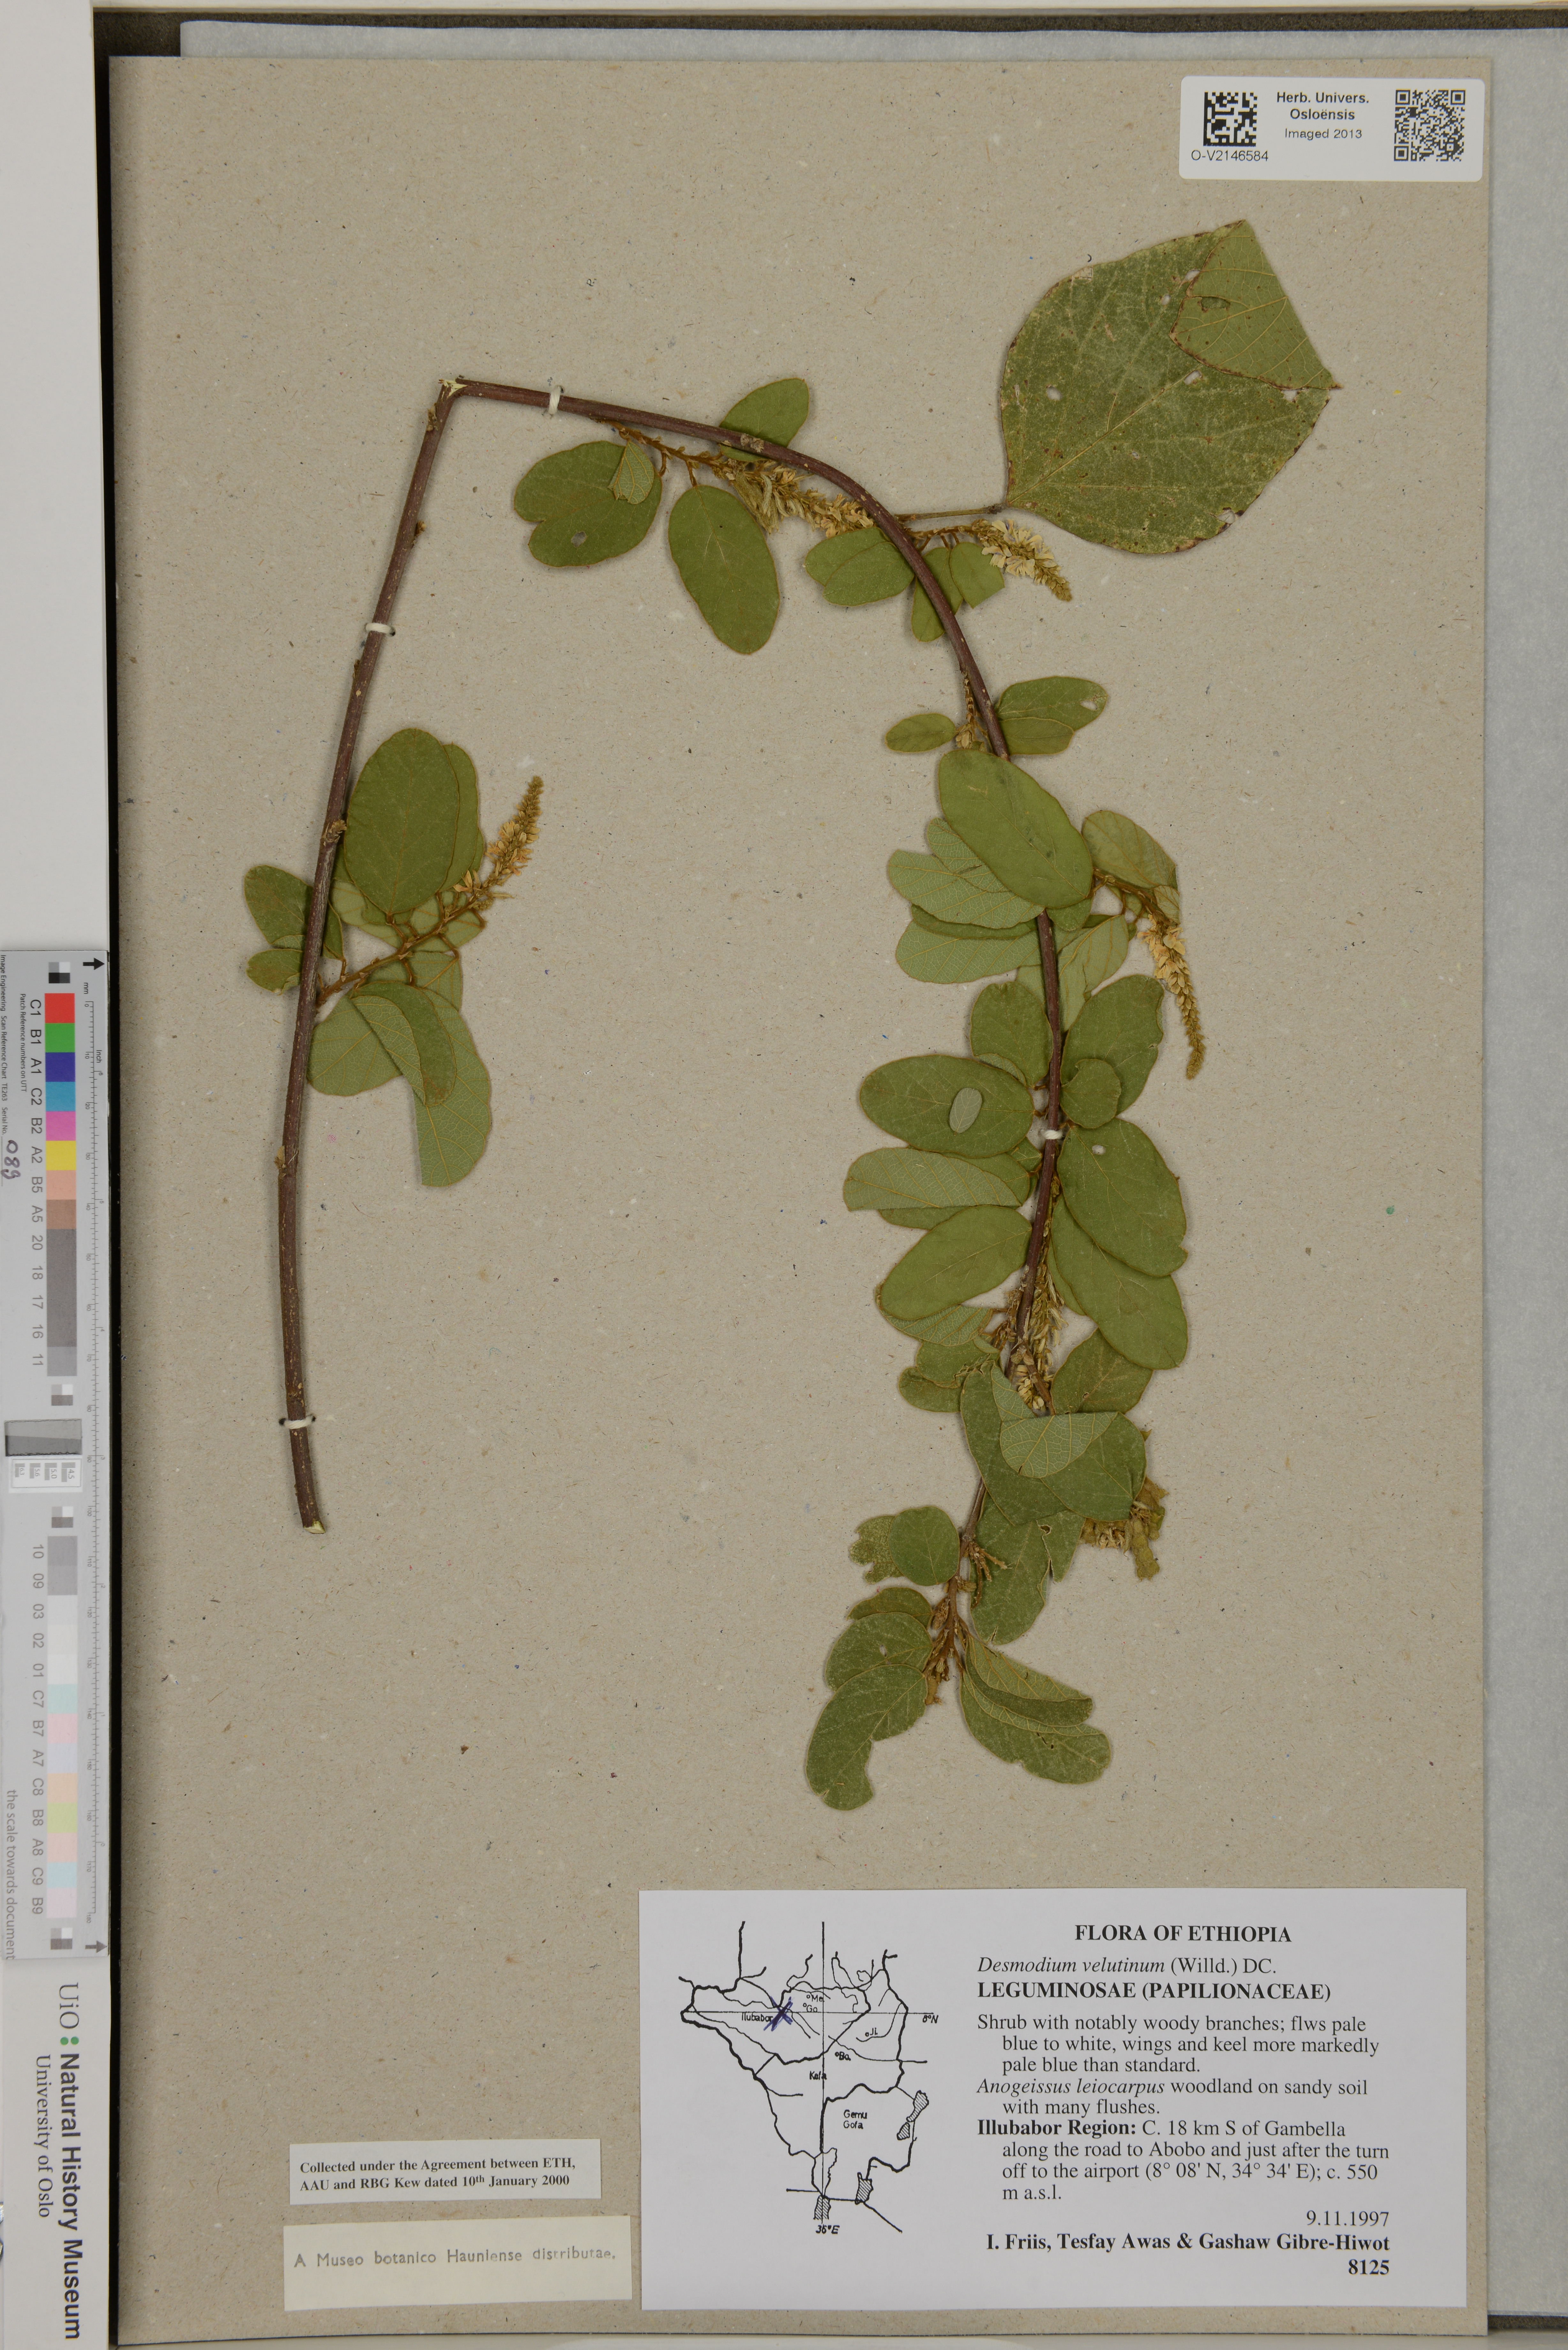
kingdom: Plantae
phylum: Tracheophyta
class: Magnoliopsida
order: Fabales
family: Fabaceae
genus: Polhillides
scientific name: Polhillides velutina
